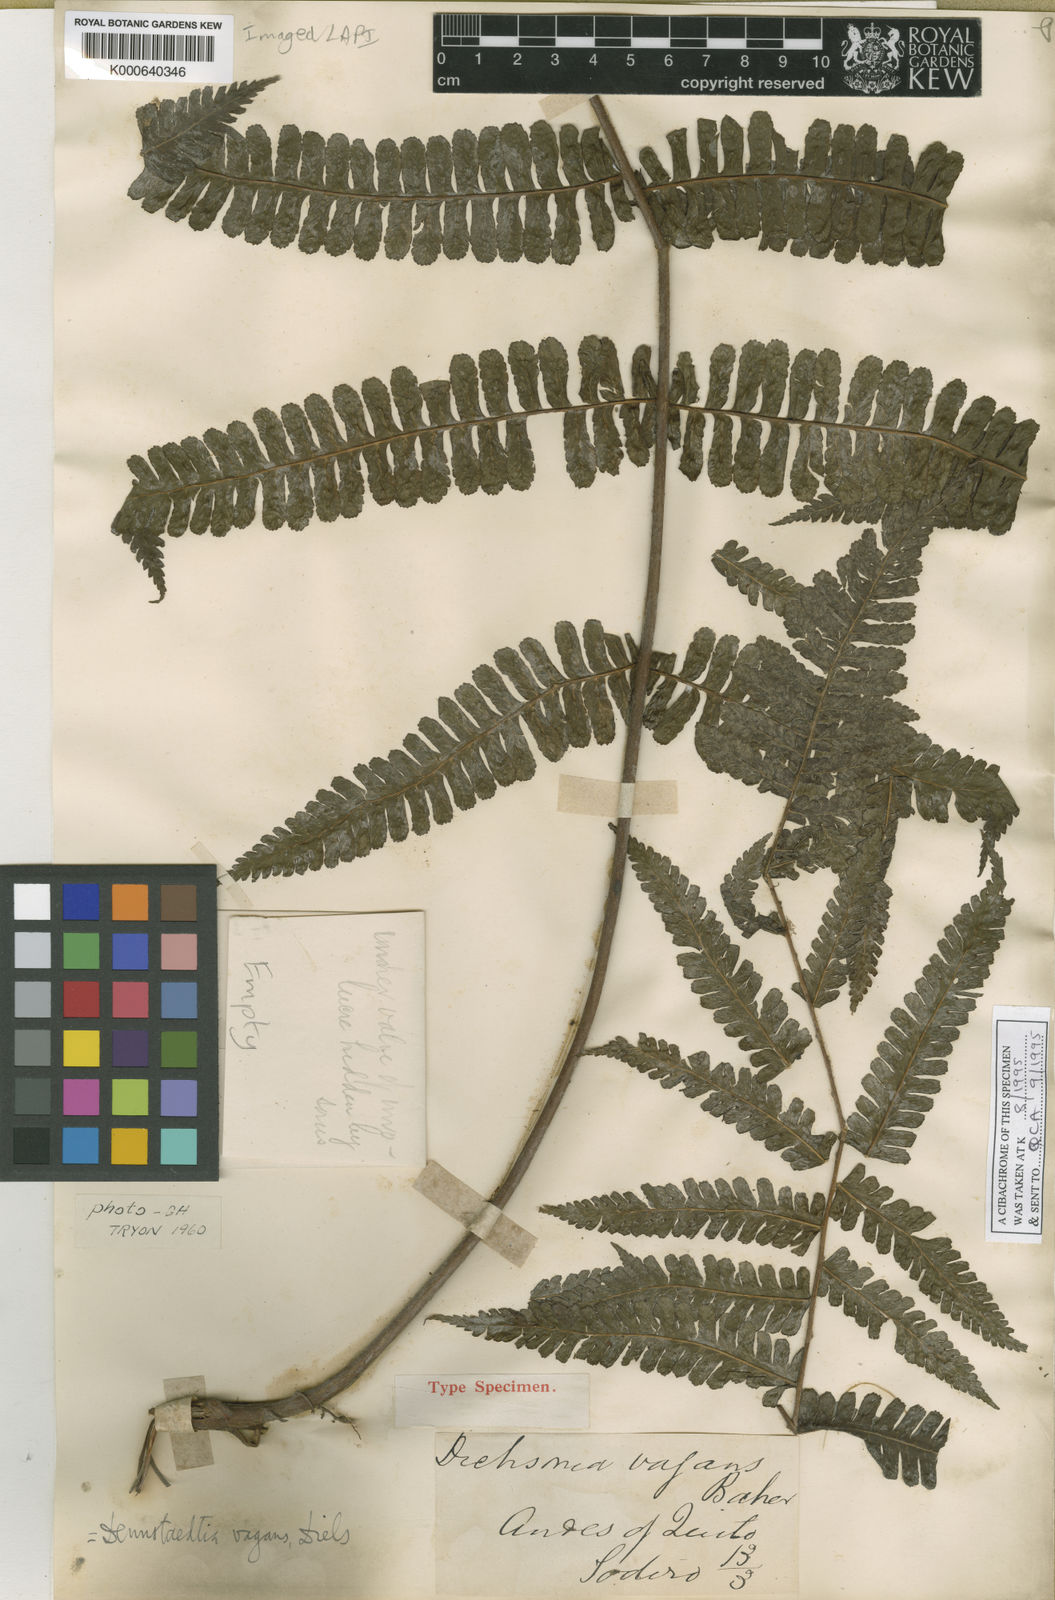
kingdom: Plantae
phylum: Tracheophyta
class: Polypodiopsida
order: Polypodiales
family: Dennstaedtiaceae
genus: Dennstaedtia
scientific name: Dennstaedtia vagans
